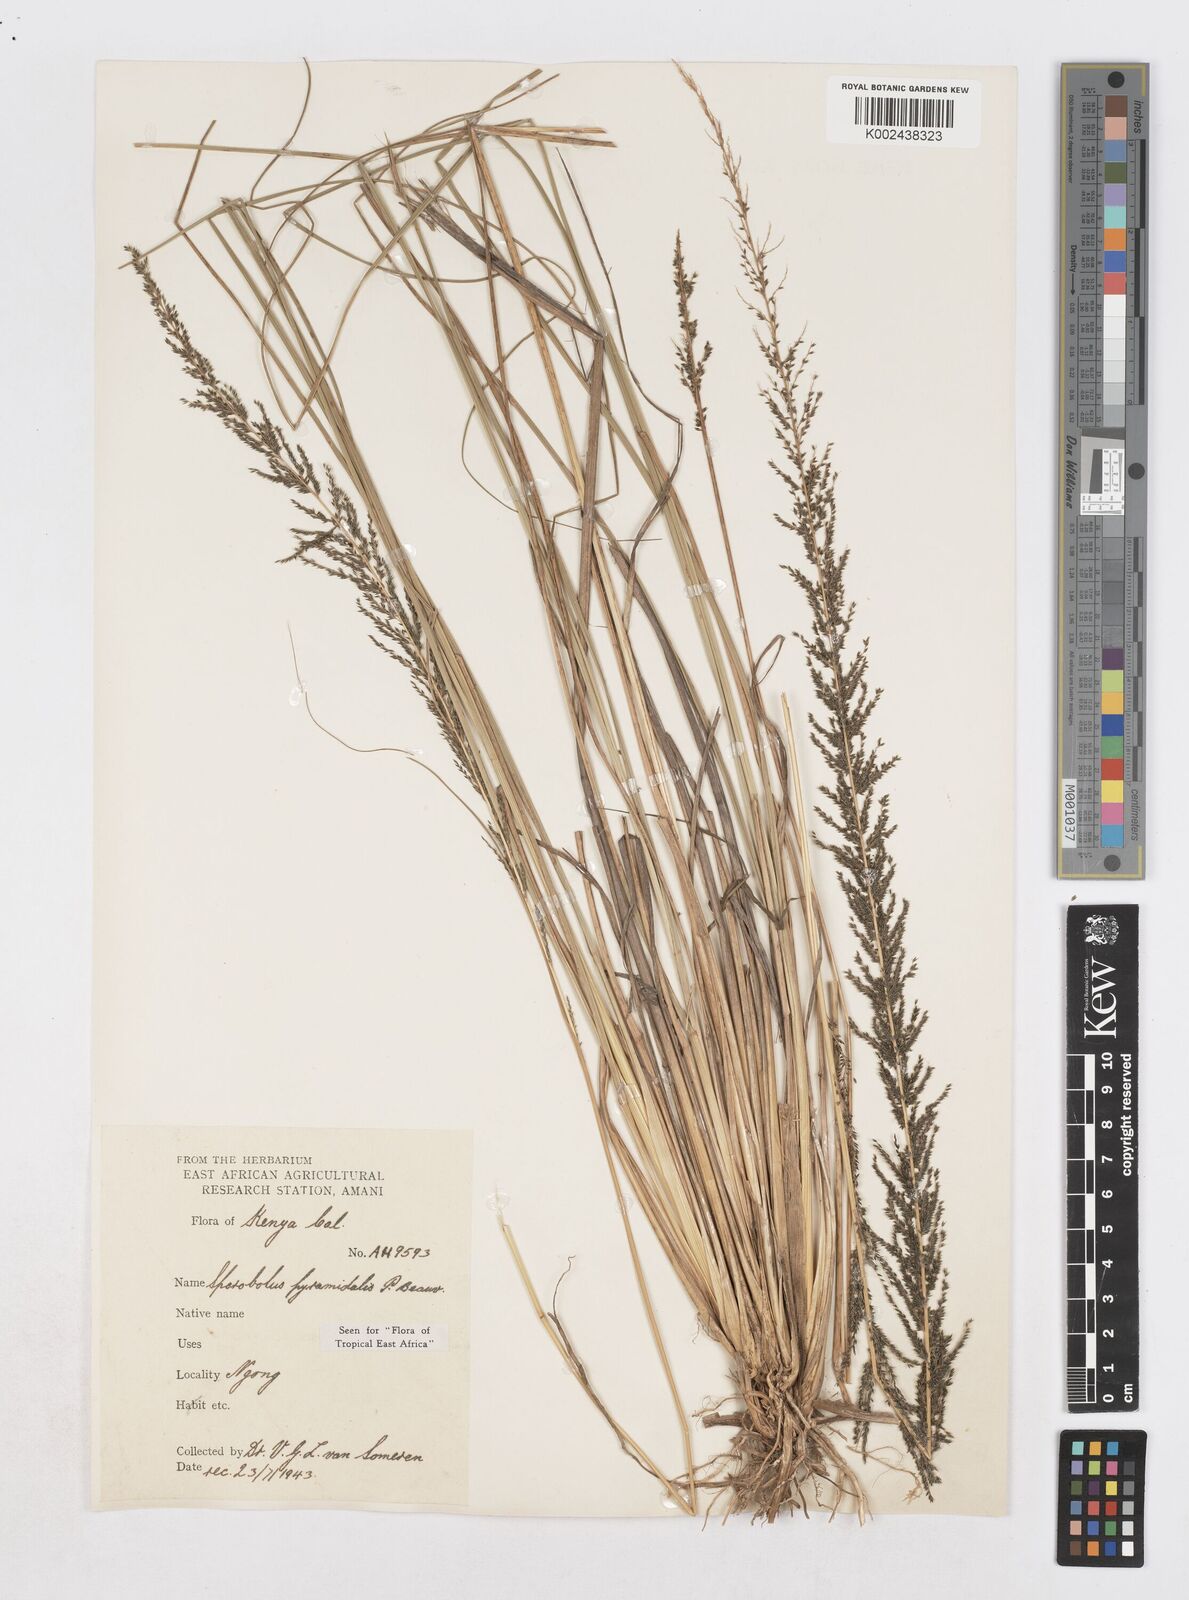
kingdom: Plantae
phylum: Tracheophyta
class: Liliopsida
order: Poales
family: Poaceae
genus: Sporobolus
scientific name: Sporobolus pyramidalis
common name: West indian dropseed
